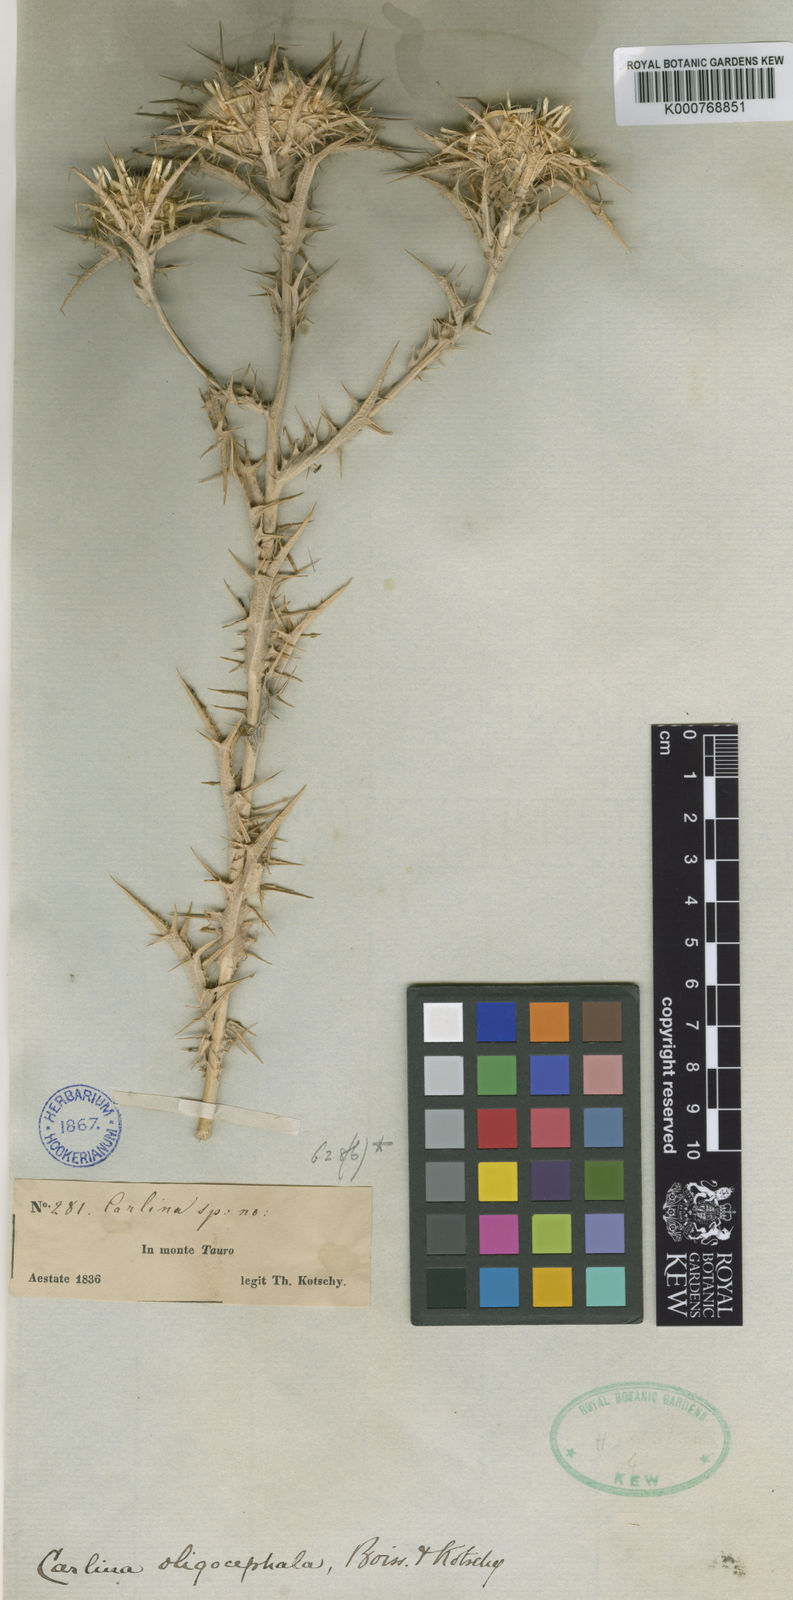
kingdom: Plantae
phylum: Tracheophyta
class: Magnoliopsida
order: Asterales
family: Asteraceae
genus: Carlina
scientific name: Carlina oligocephala
